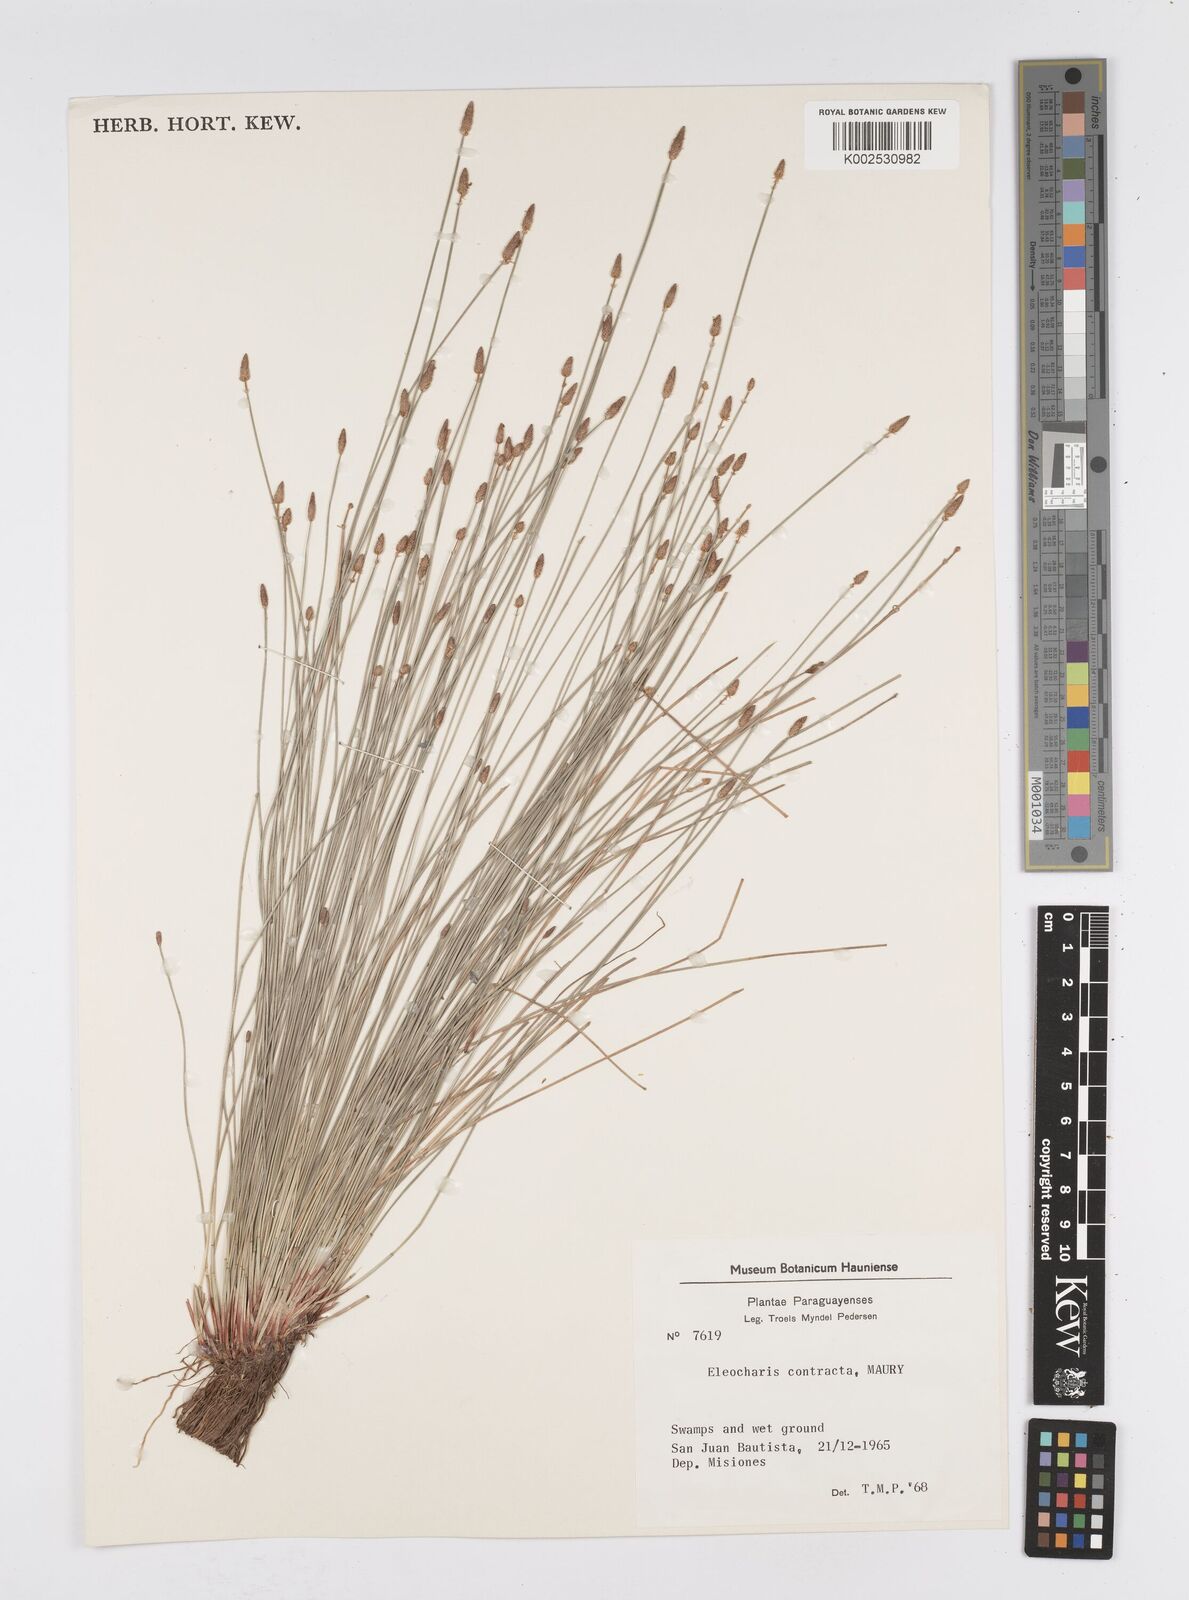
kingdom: Plantae
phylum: Tracheophyta
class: Liliopsida
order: Poales
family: Cyperaceae
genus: Eleocharis
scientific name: Eleocharis montana
